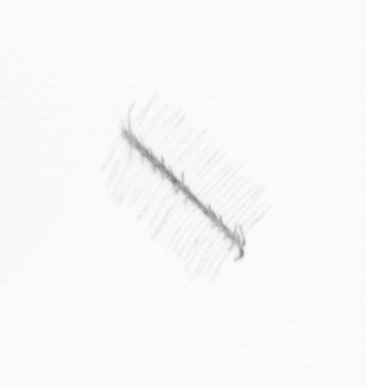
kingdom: Chromista
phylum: Ochrophyta
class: Bacillariophyceae
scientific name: Bacillariophyceae
